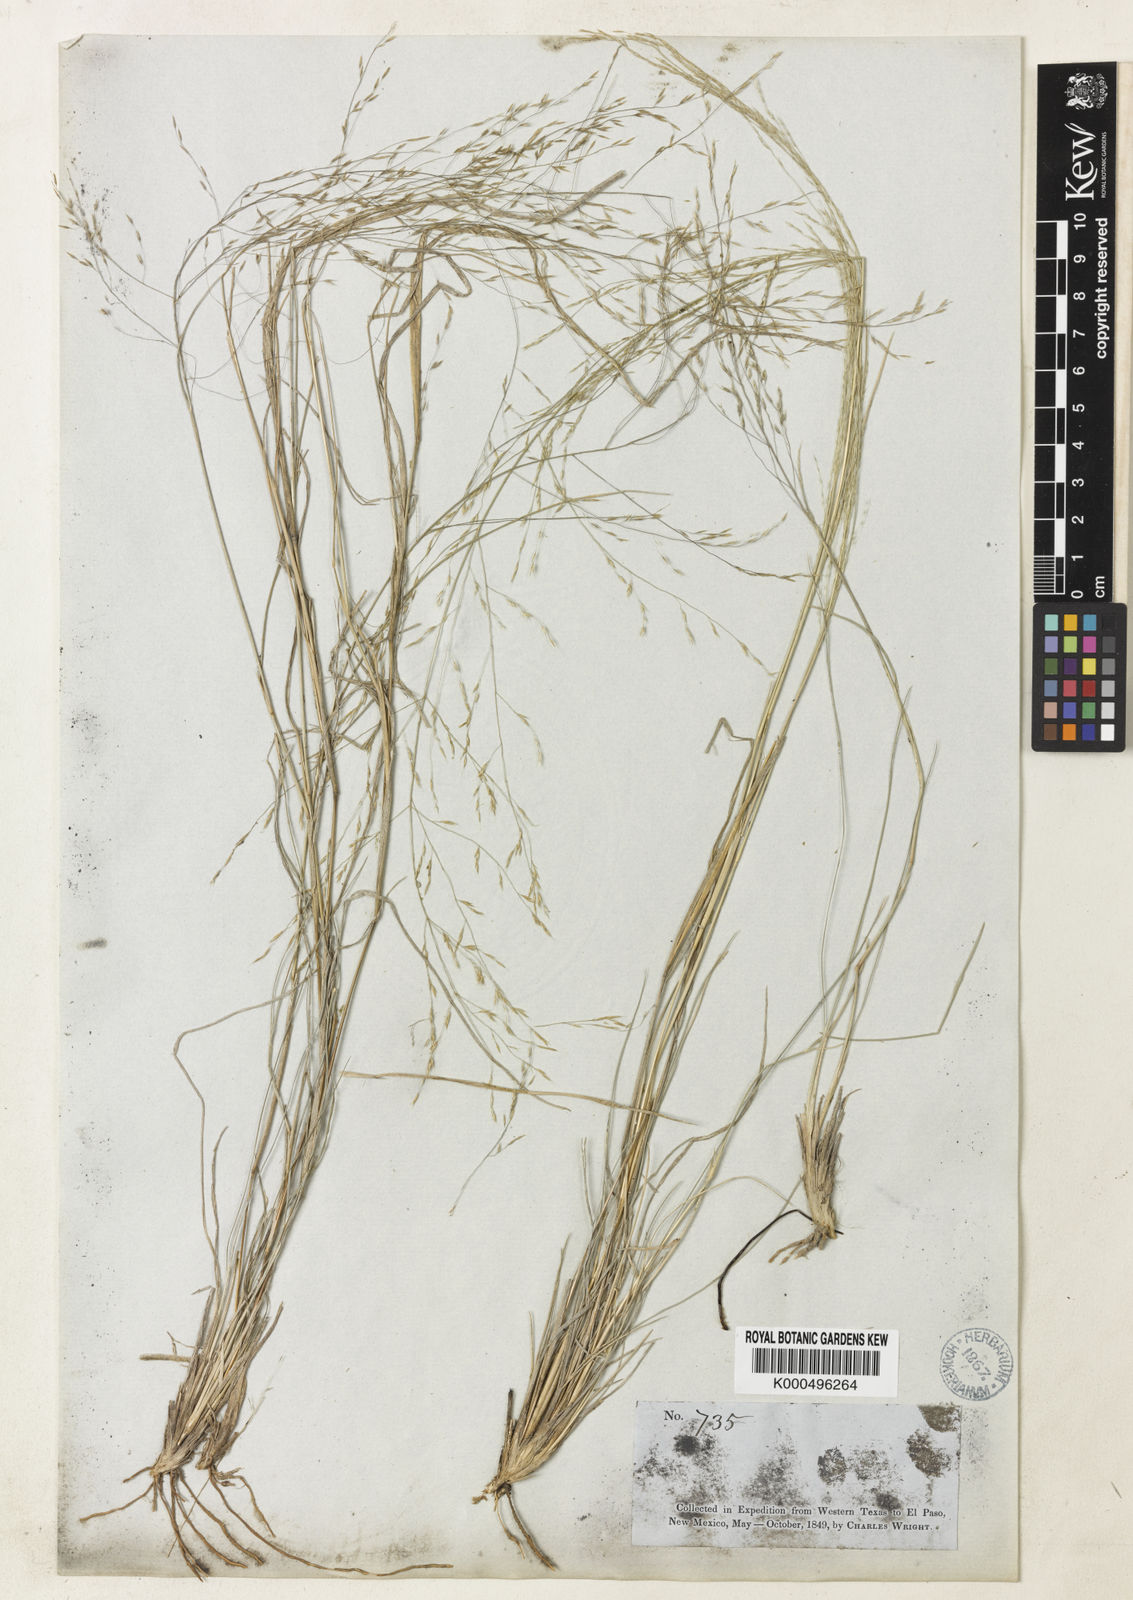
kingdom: Plantae
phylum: Tracheophyta
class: Liliopsida
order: Poales
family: Poaceae
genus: Muhlenbergia
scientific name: Muhlenbergia arenicola
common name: Sand muhly
